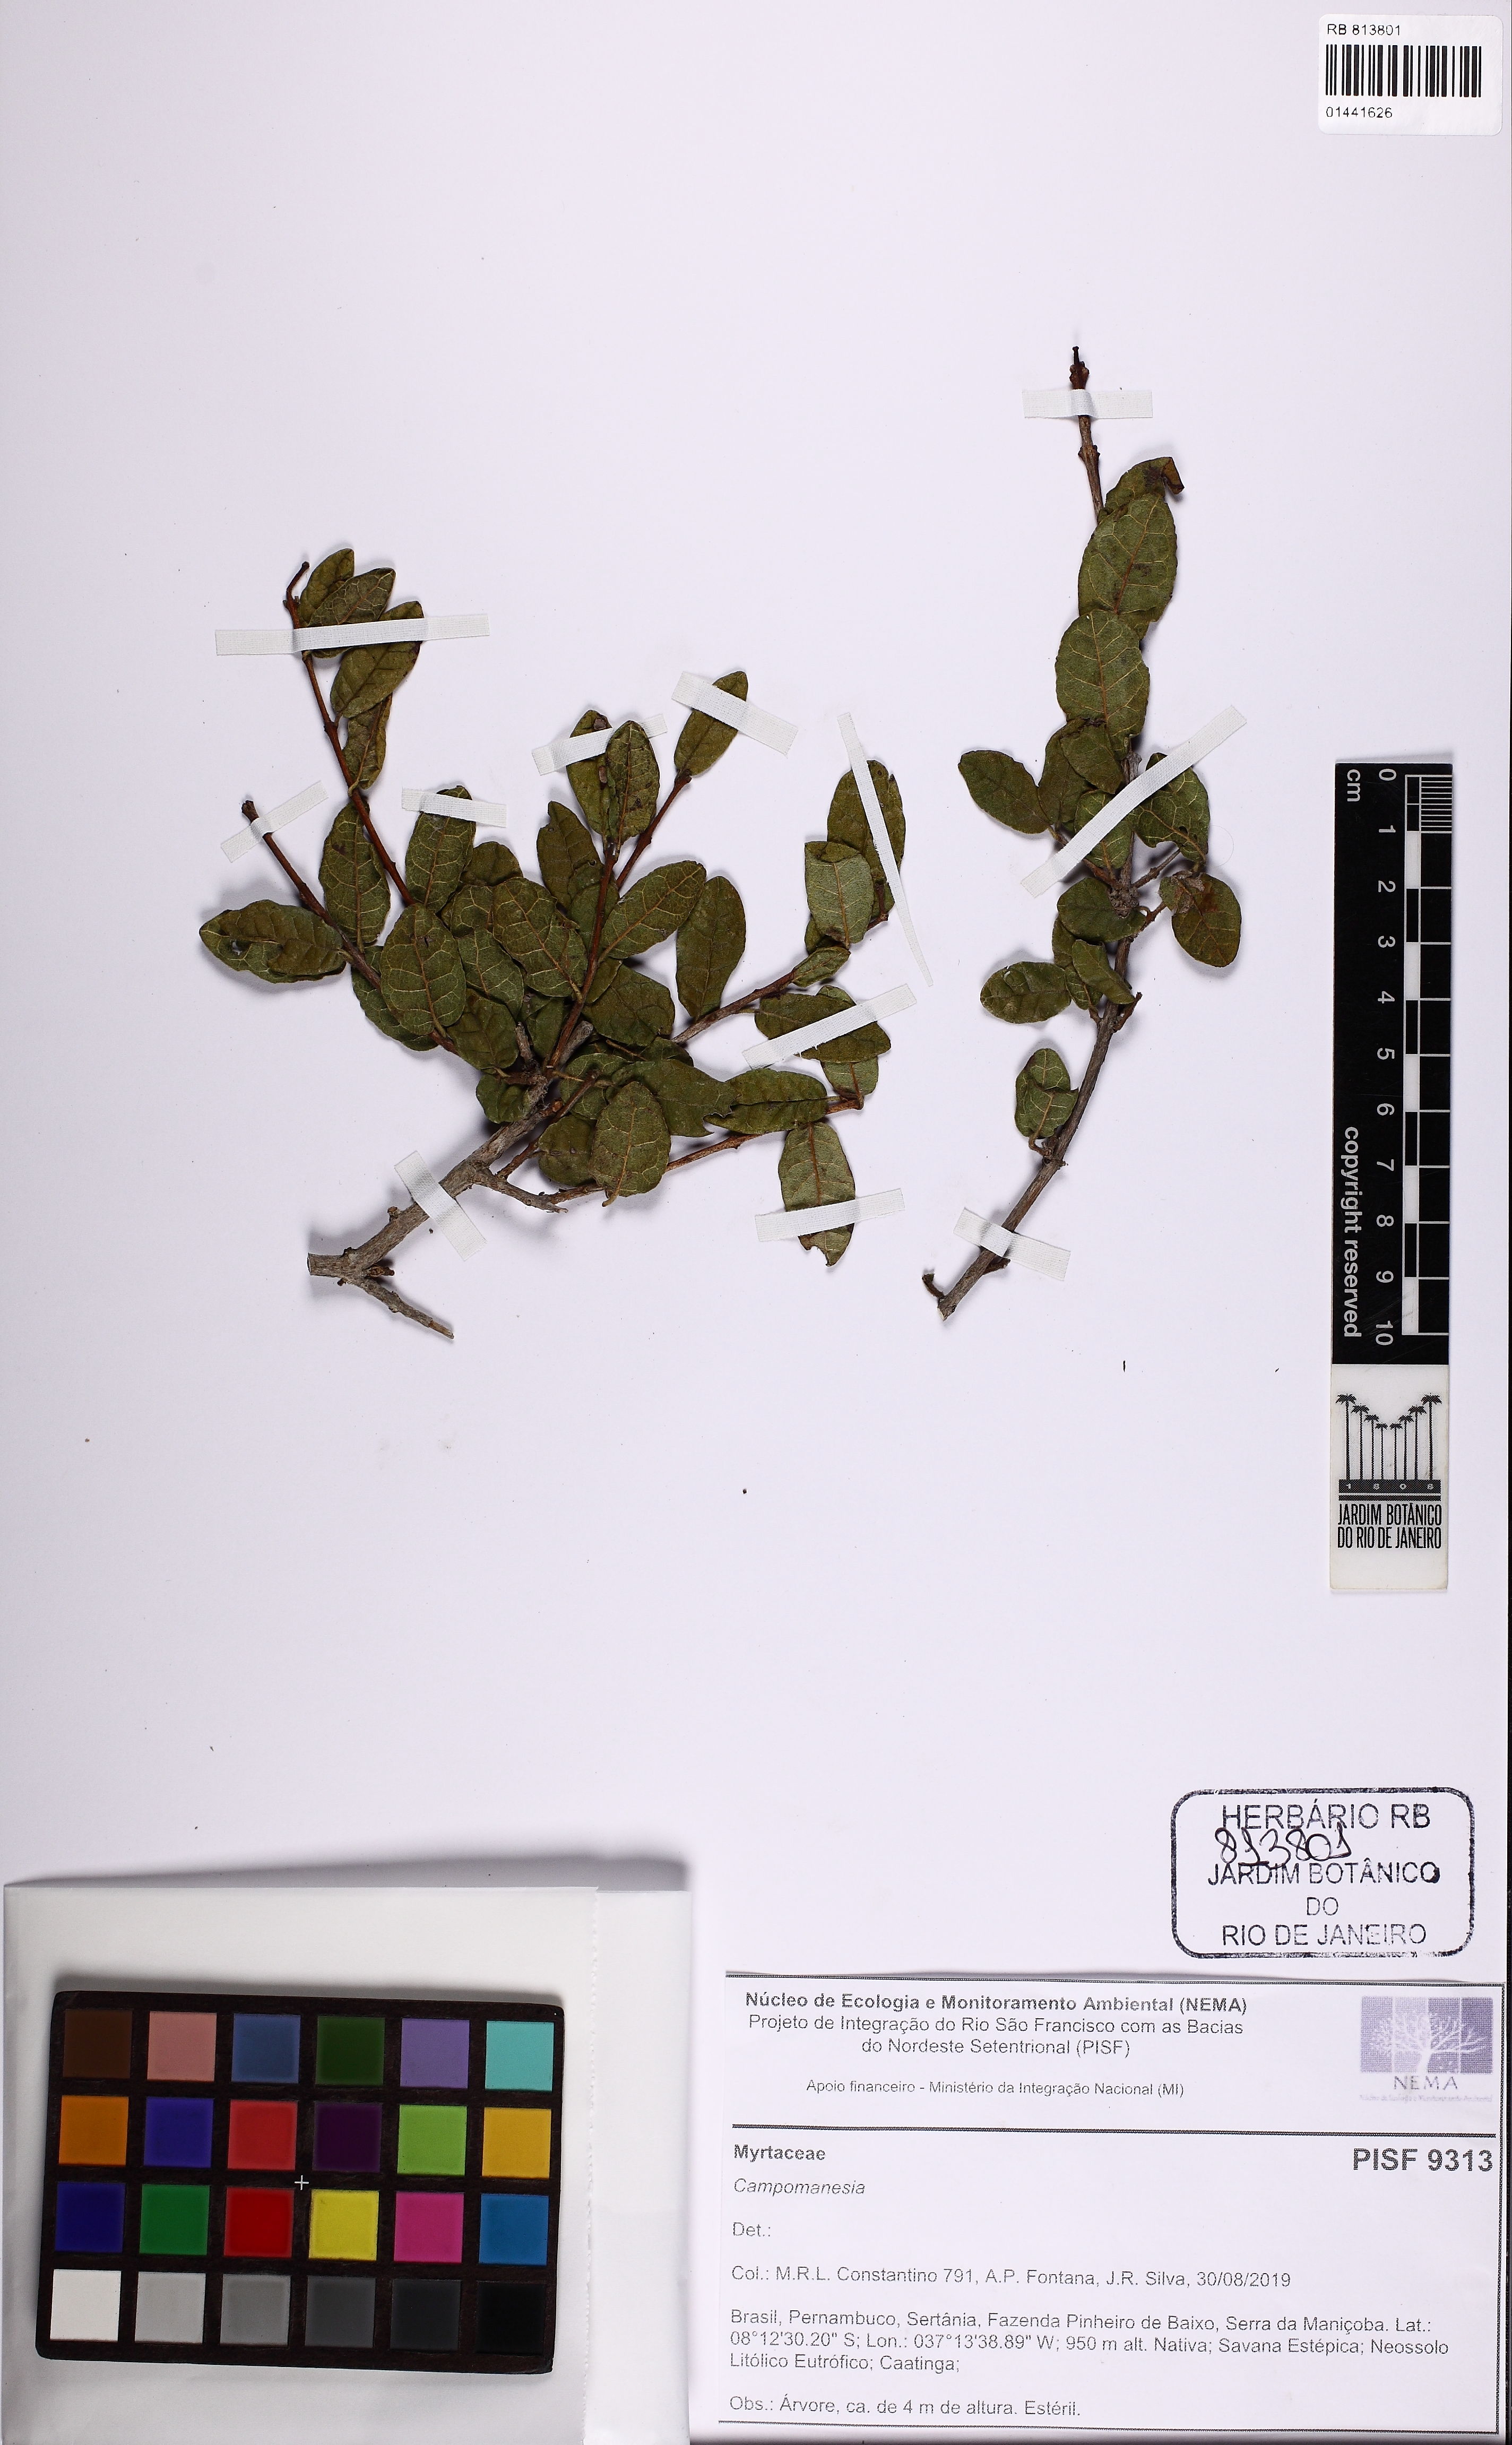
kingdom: Plantae
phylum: Tracheophyta
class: Magnoliopsida
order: Myrtales
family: Myrtaceae
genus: Campomanesia
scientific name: Campomanesia
